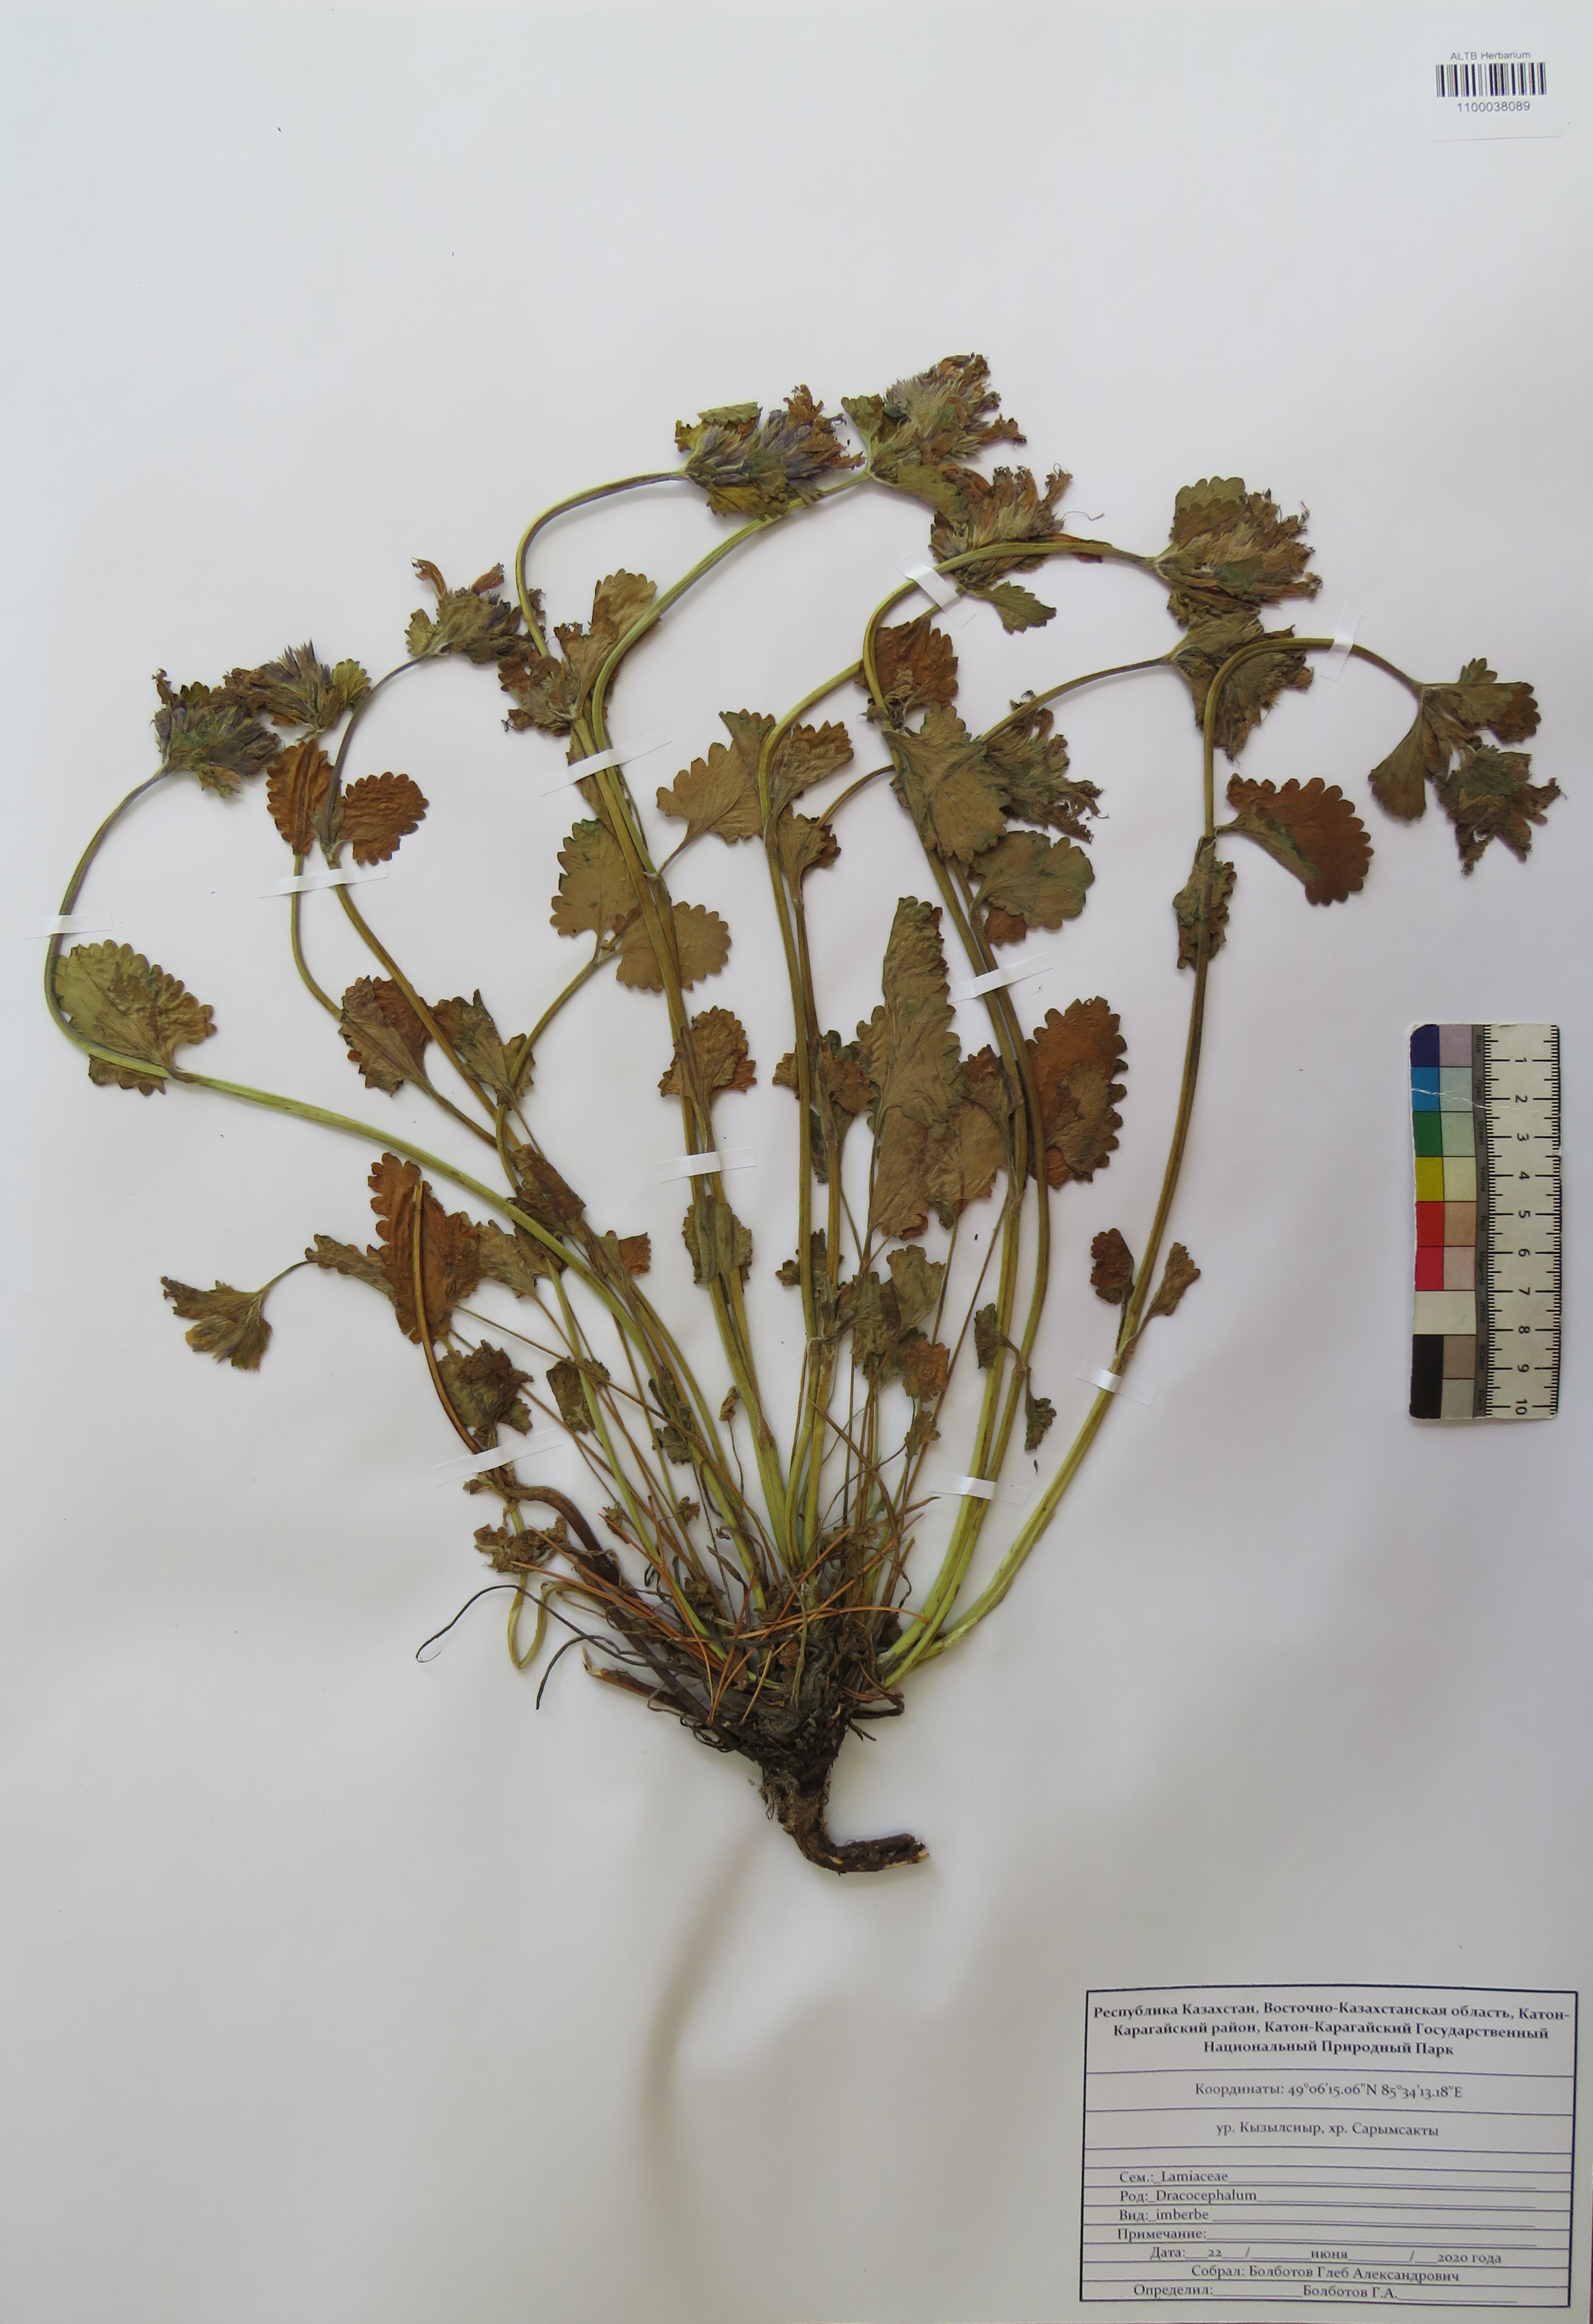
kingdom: Plantae
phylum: Tracheophyta
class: Magnoliopsida
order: Lamiales
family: Lamiaceae
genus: Dracocephalum
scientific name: Dracocephalum imberbe
